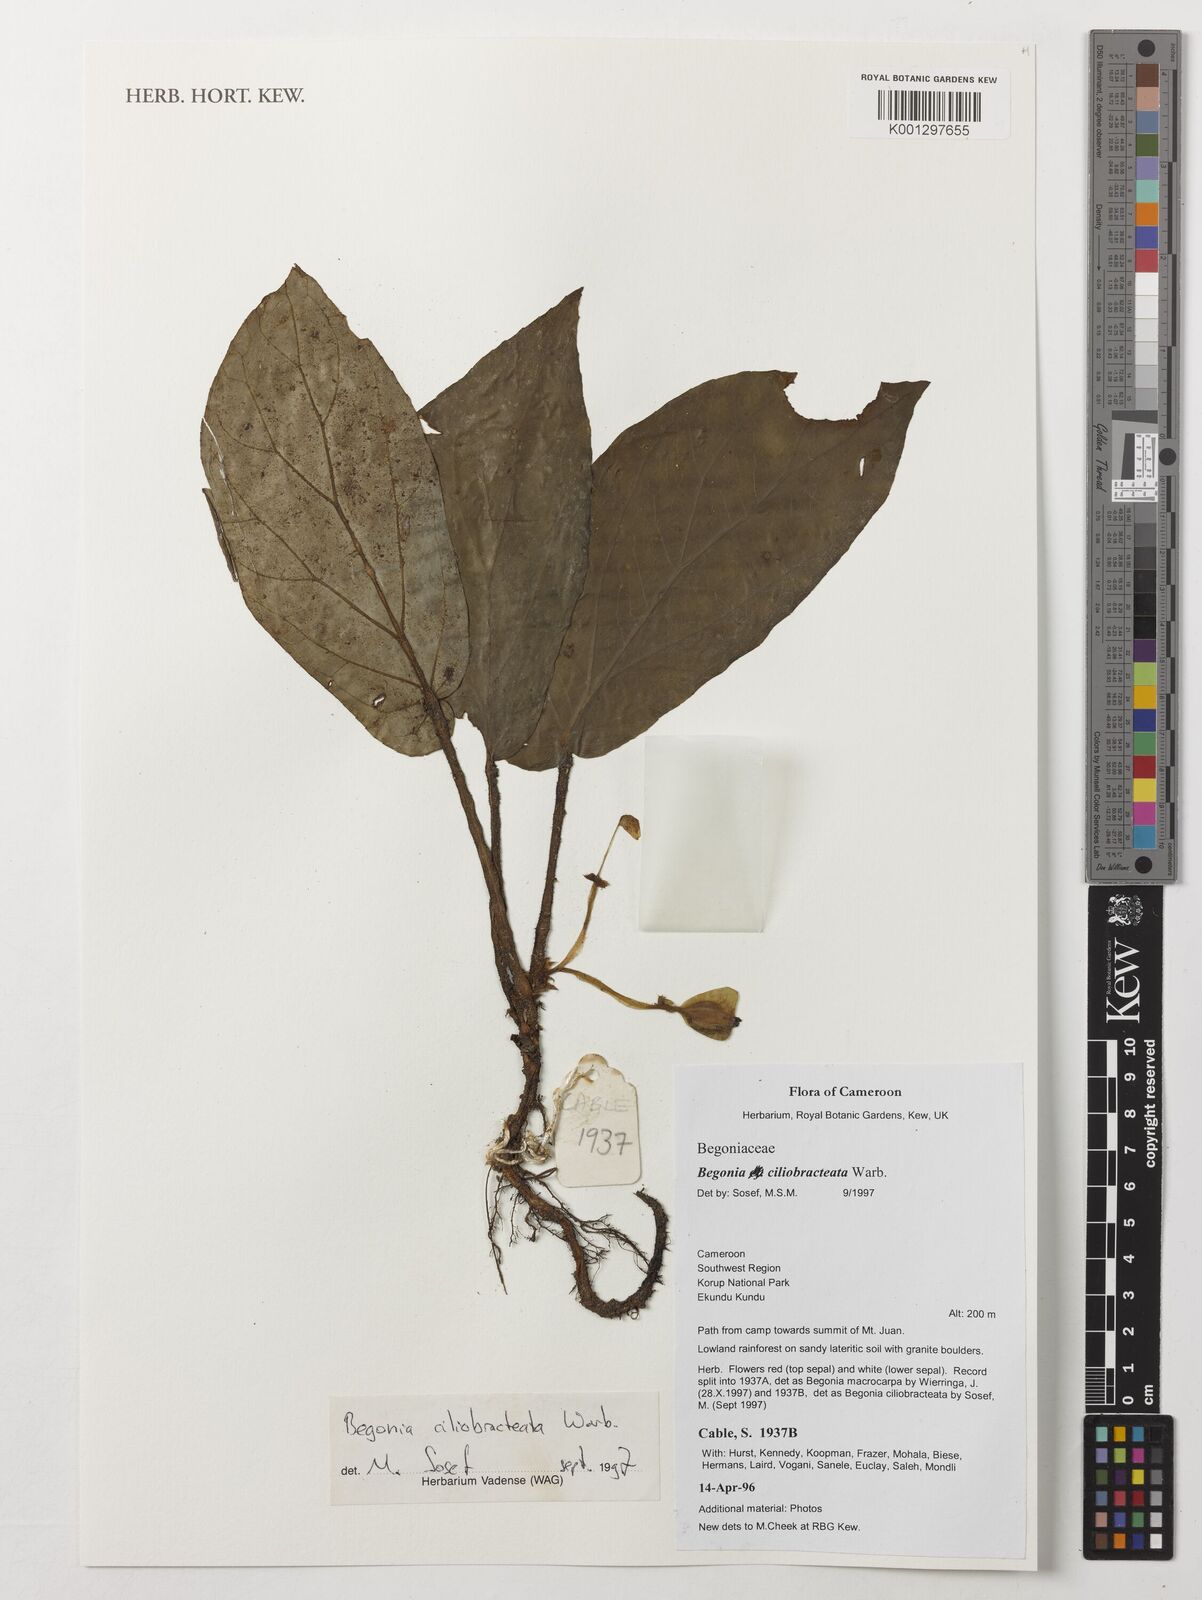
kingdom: Plantae
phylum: Tracheophyta
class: Magnoliopsida
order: Cucurbitales
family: Begoniaceae
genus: Begonia
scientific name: Begonia ciliobracteata
